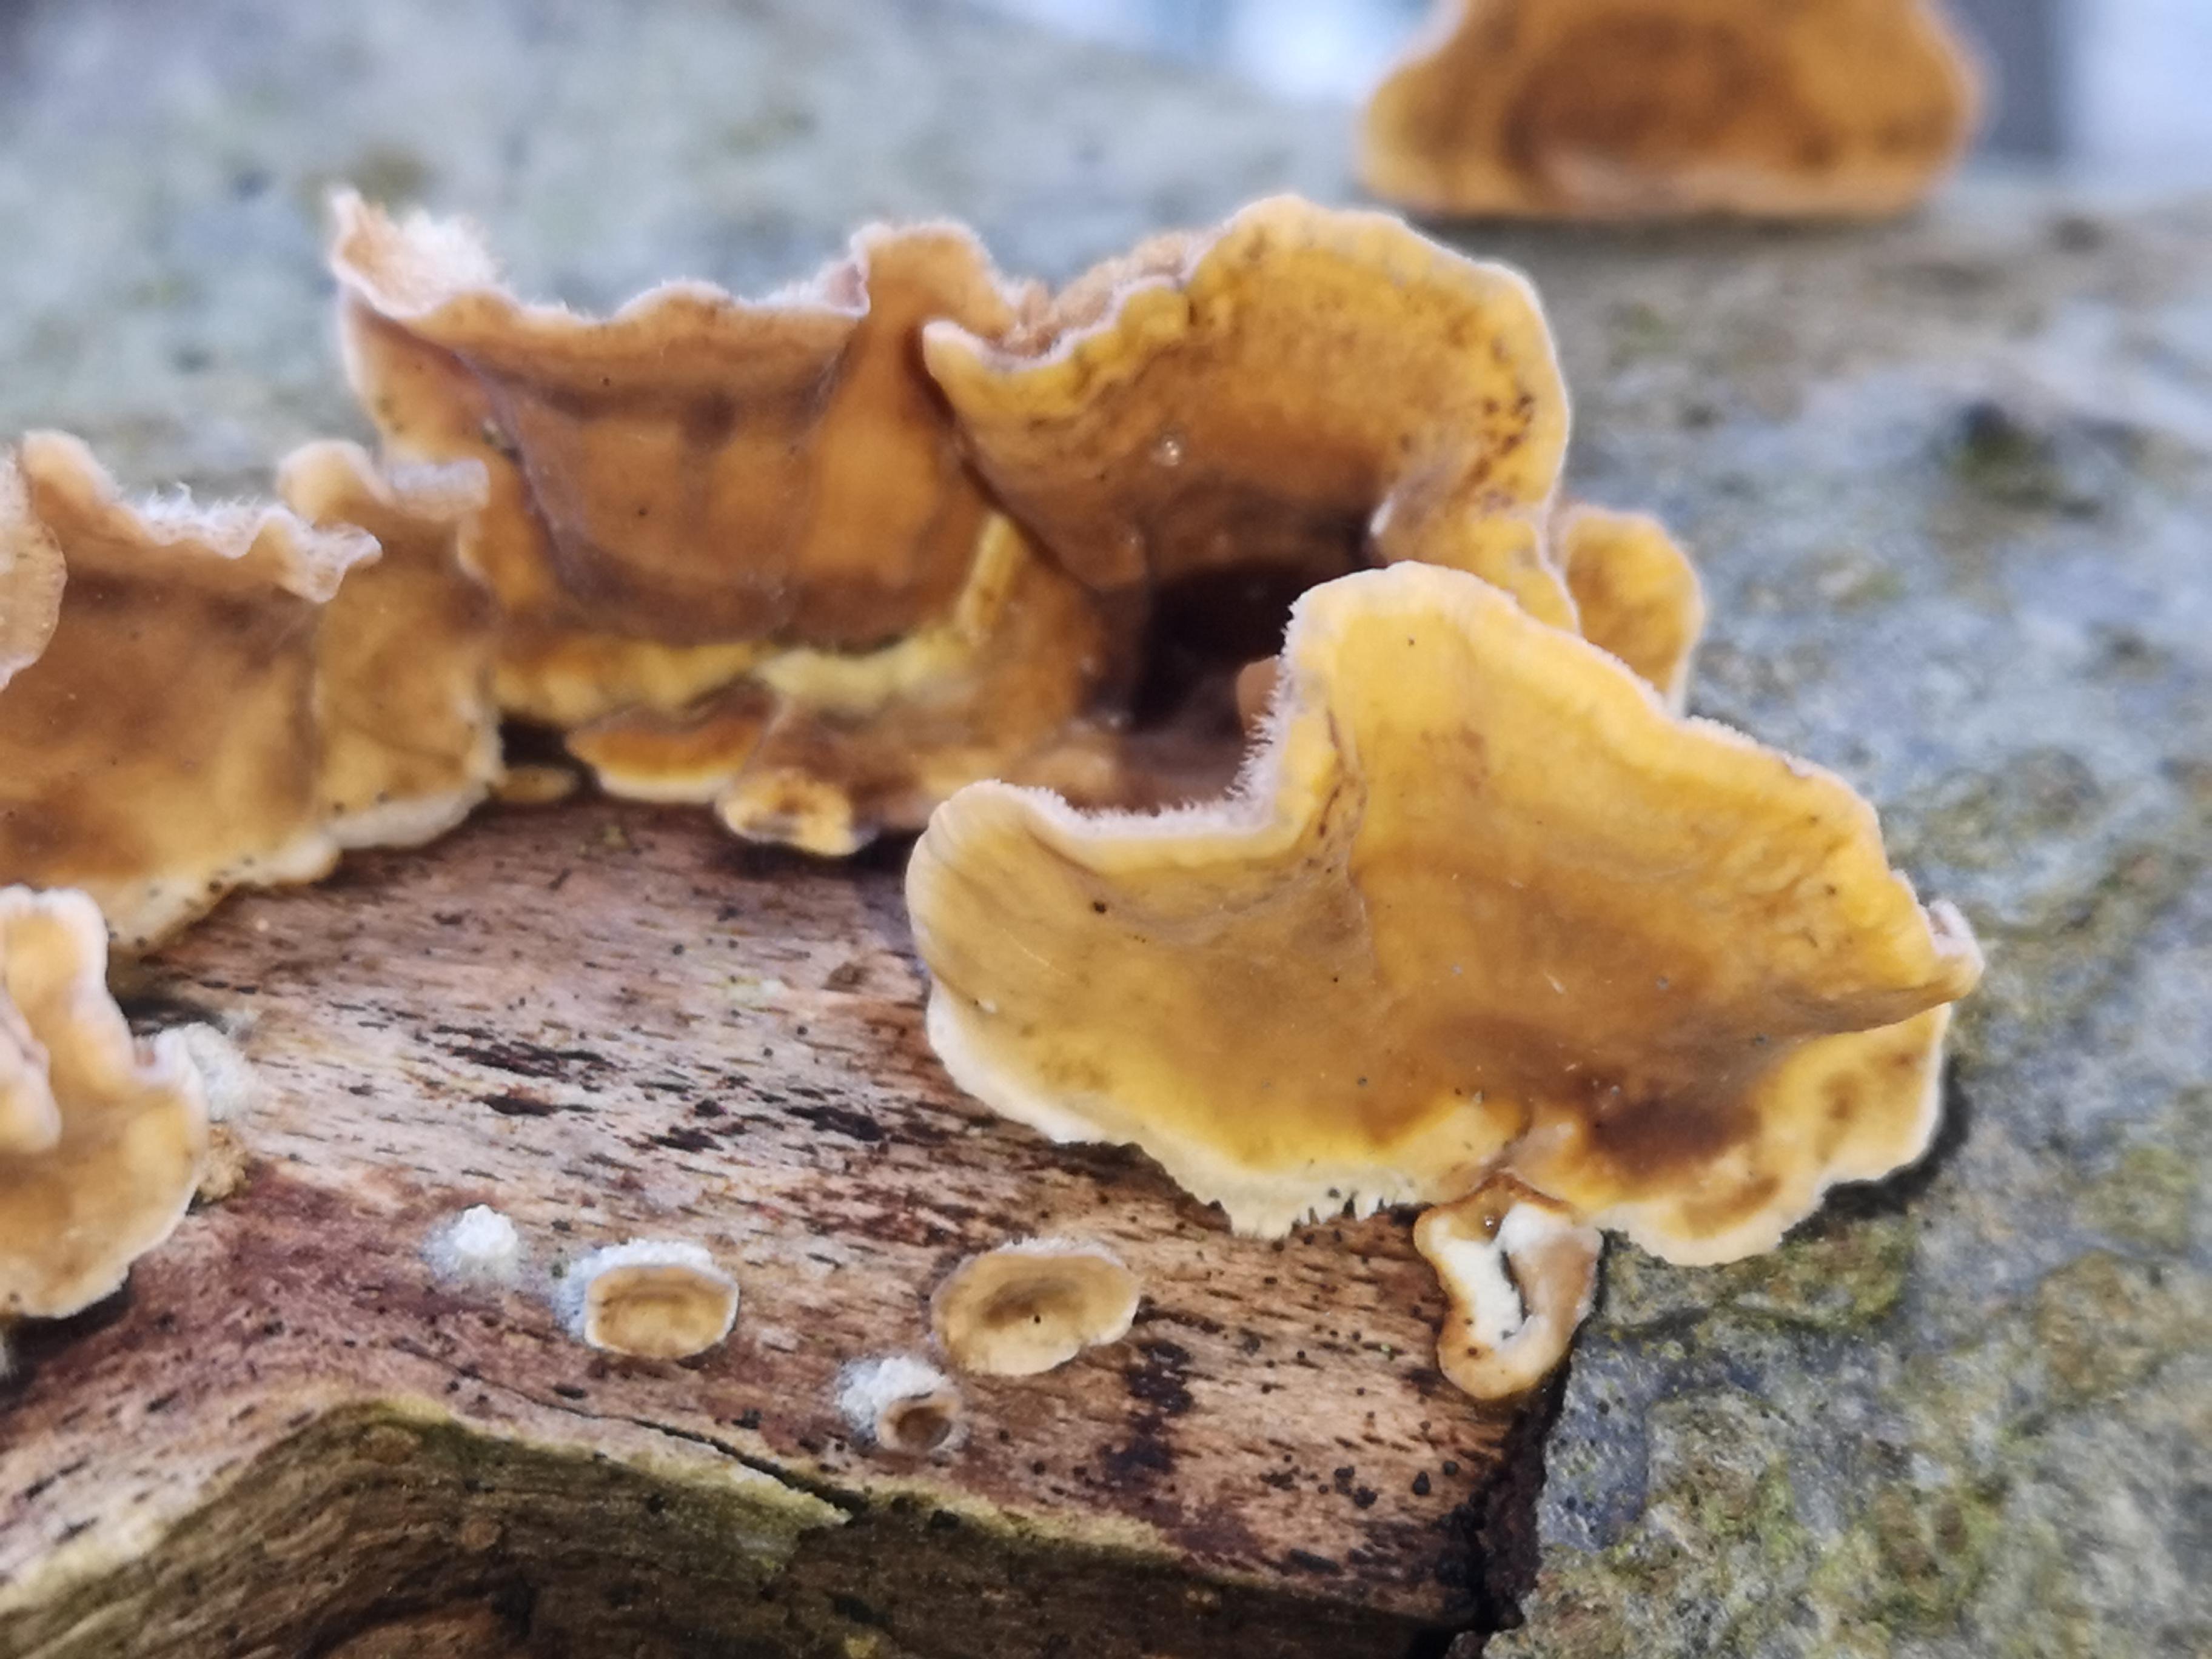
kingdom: Fungi
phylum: Basidiomycota
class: Agaricomycetes
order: Russulales
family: Stereaceae
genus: Stereum
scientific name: Stereum hirsutum
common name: håret lædersvamp
